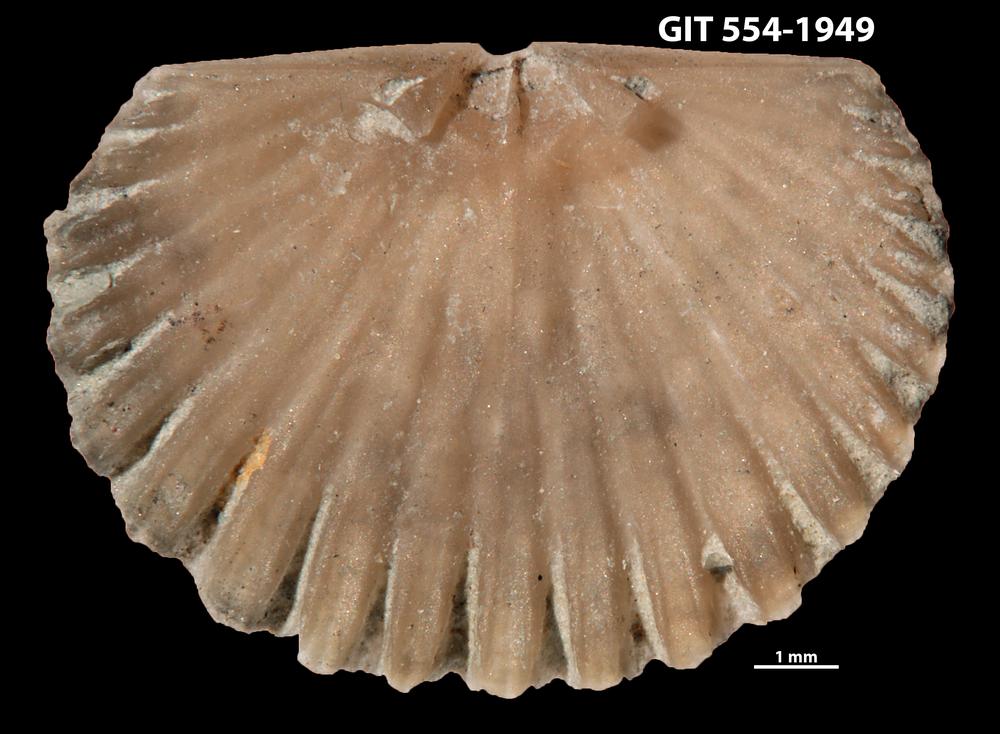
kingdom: Animalia
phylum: Brachiopoda
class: Rhynchonellata
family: Dolerorthidae
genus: Hesperorthis
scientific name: Hesperorthis hillistensis
